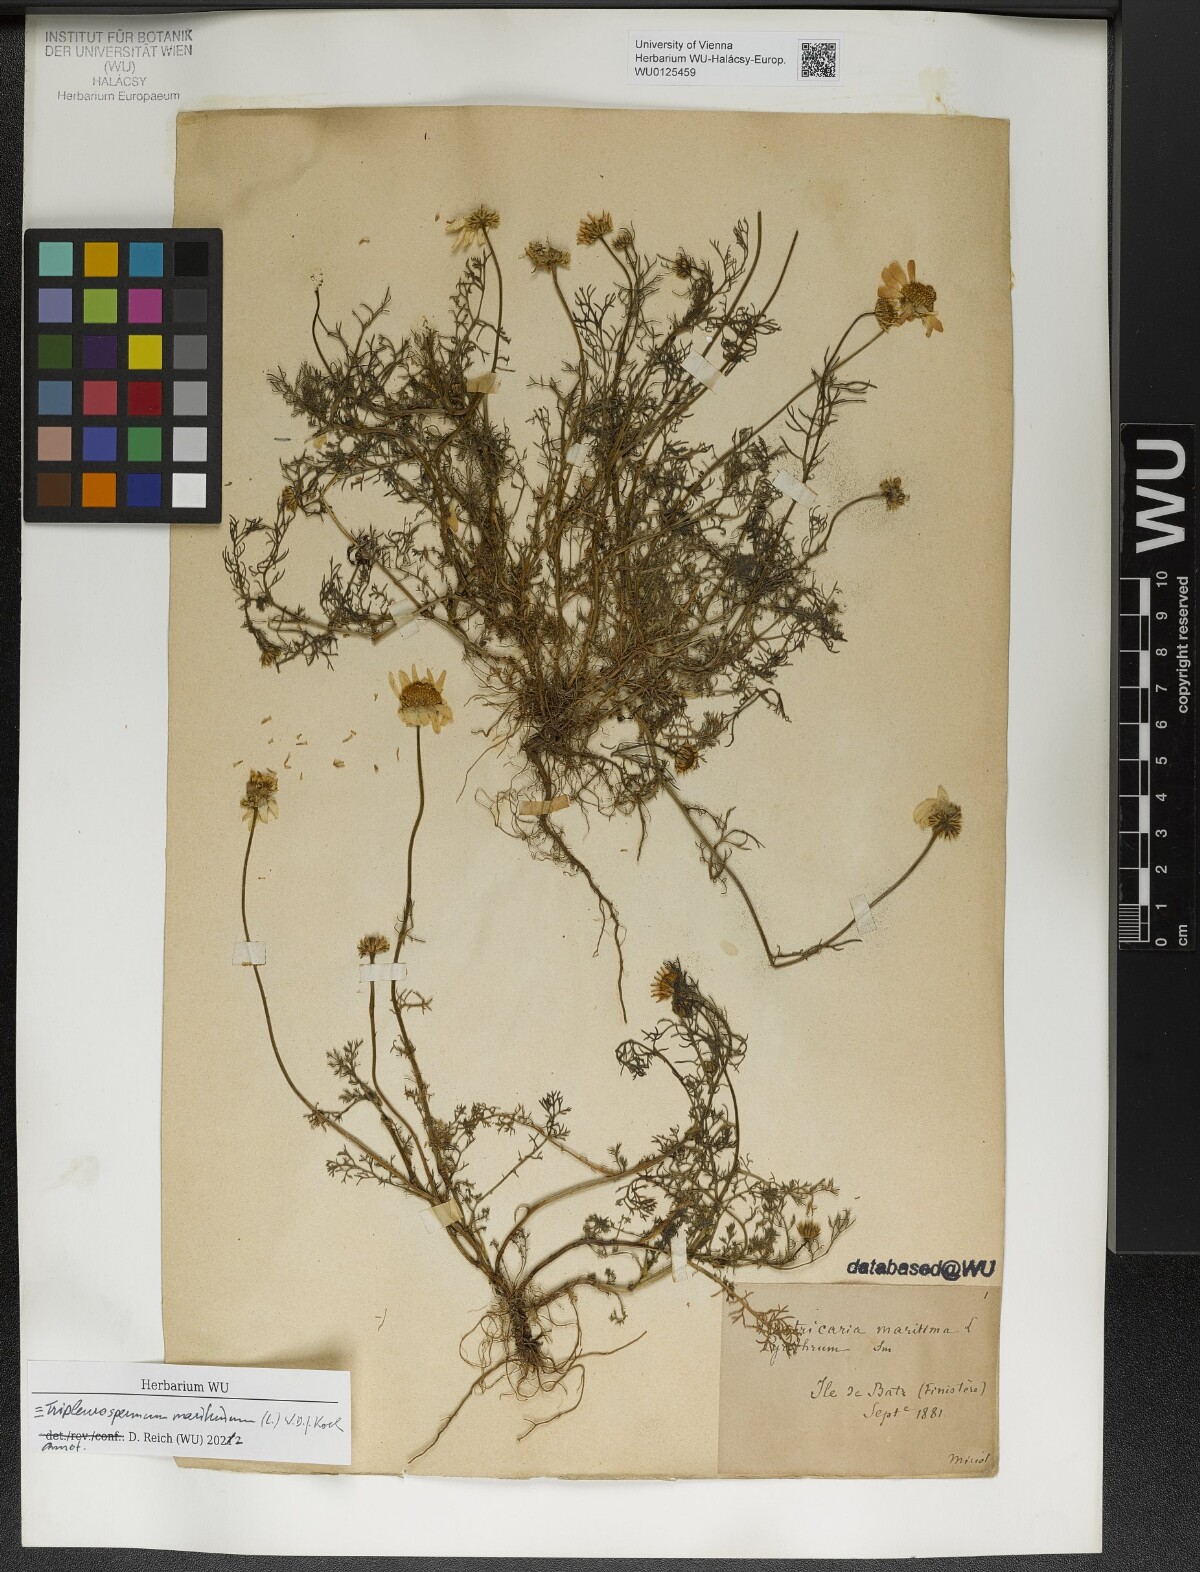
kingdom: Plantae
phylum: Tracheophyta
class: Magnoliopsida
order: Asterales
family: Asteraceae
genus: Tripleurospermum
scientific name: Tripleurospermum maritimum
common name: Sea mayweed
